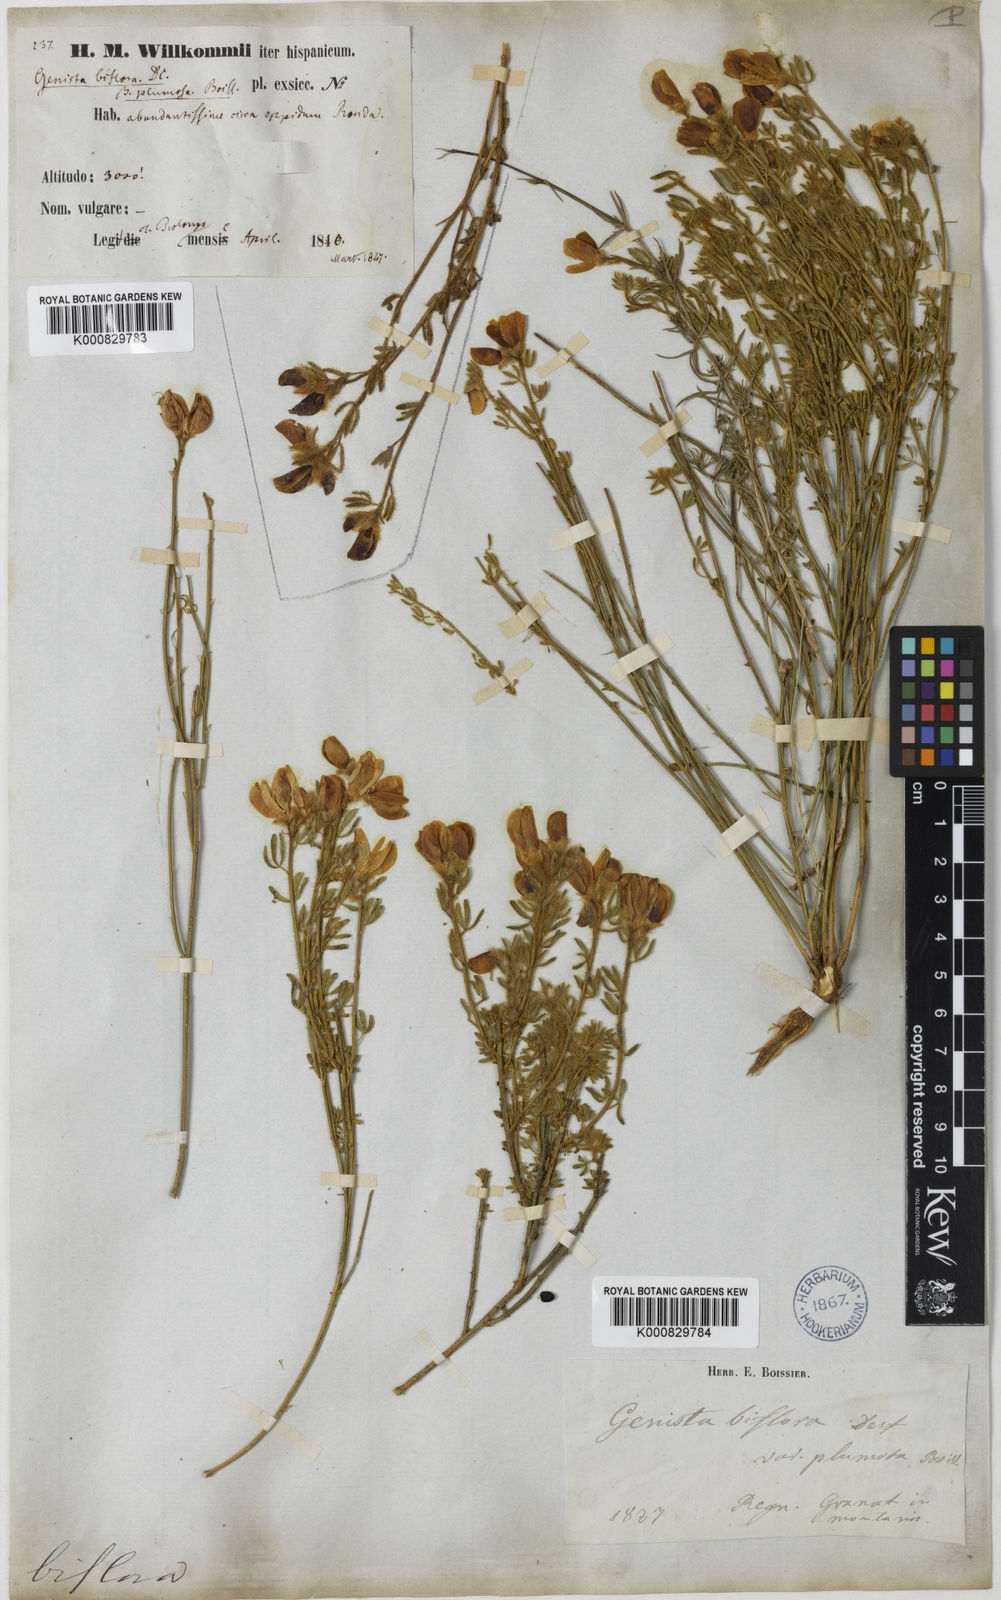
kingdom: Plantae
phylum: Tracheophyta
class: Magnoliopsida
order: Fabales
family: Fabaceae
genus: Cytisus
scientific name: Cytisus fontanesii
